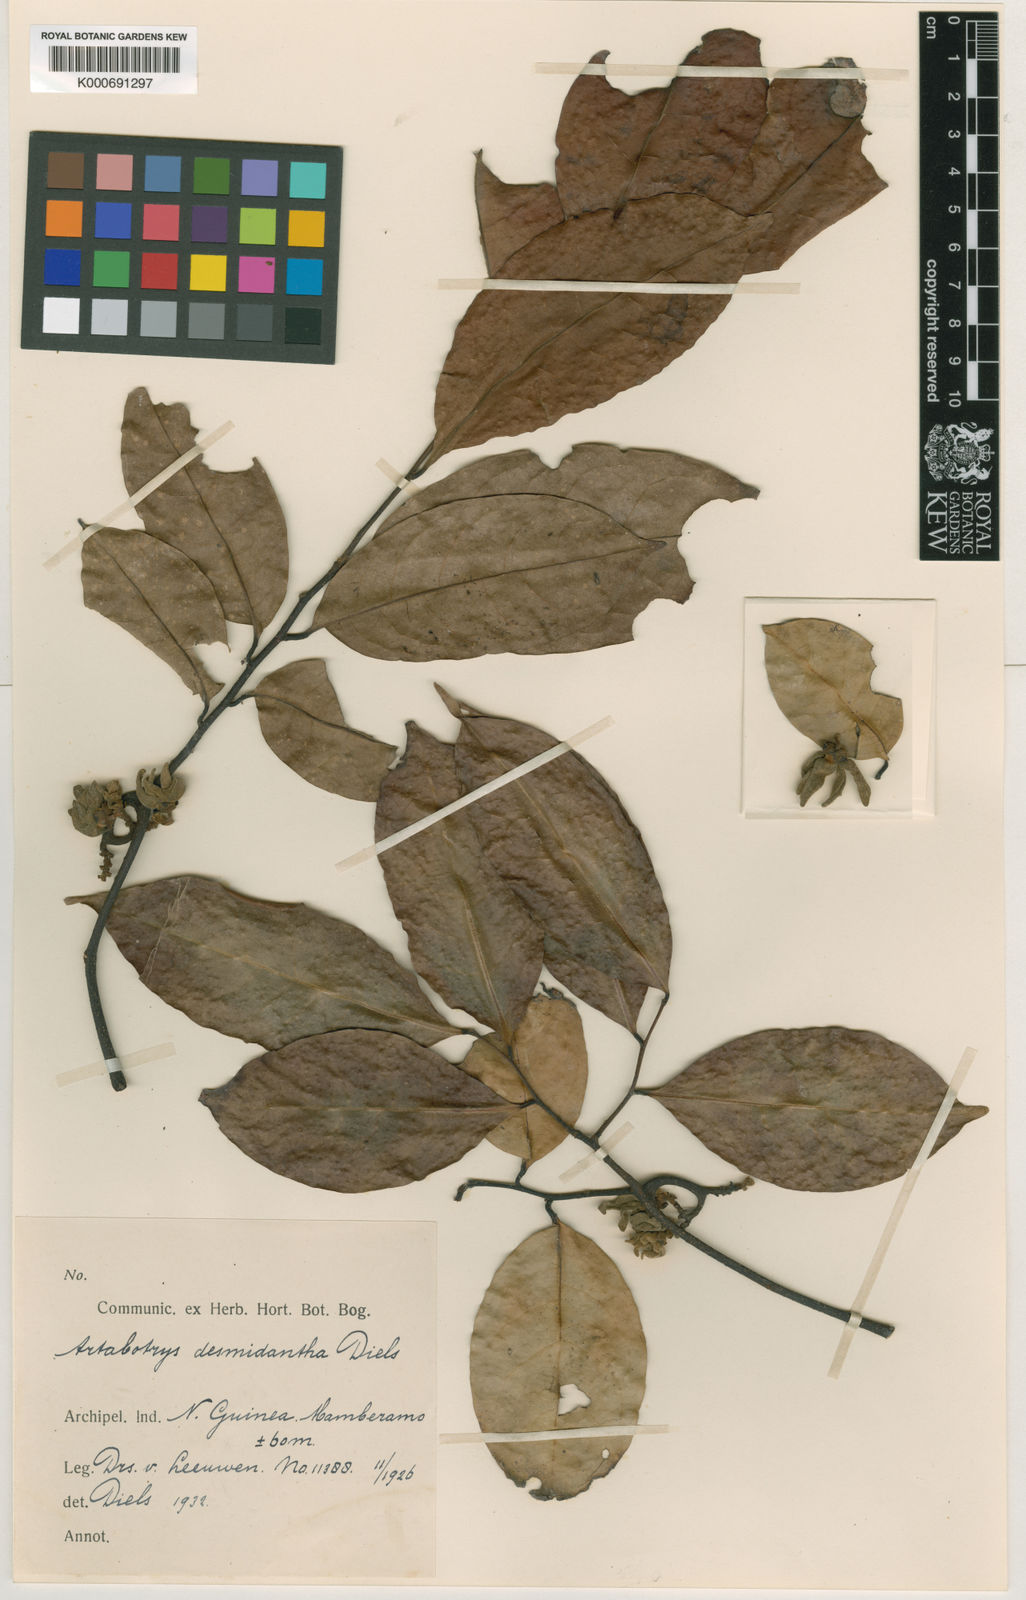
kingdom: Plantae
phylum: Tracheophyta
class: Magnoliopsida
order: Magnoliales
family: Annonaceae
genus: Artabotrys
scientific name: Artabotrys
